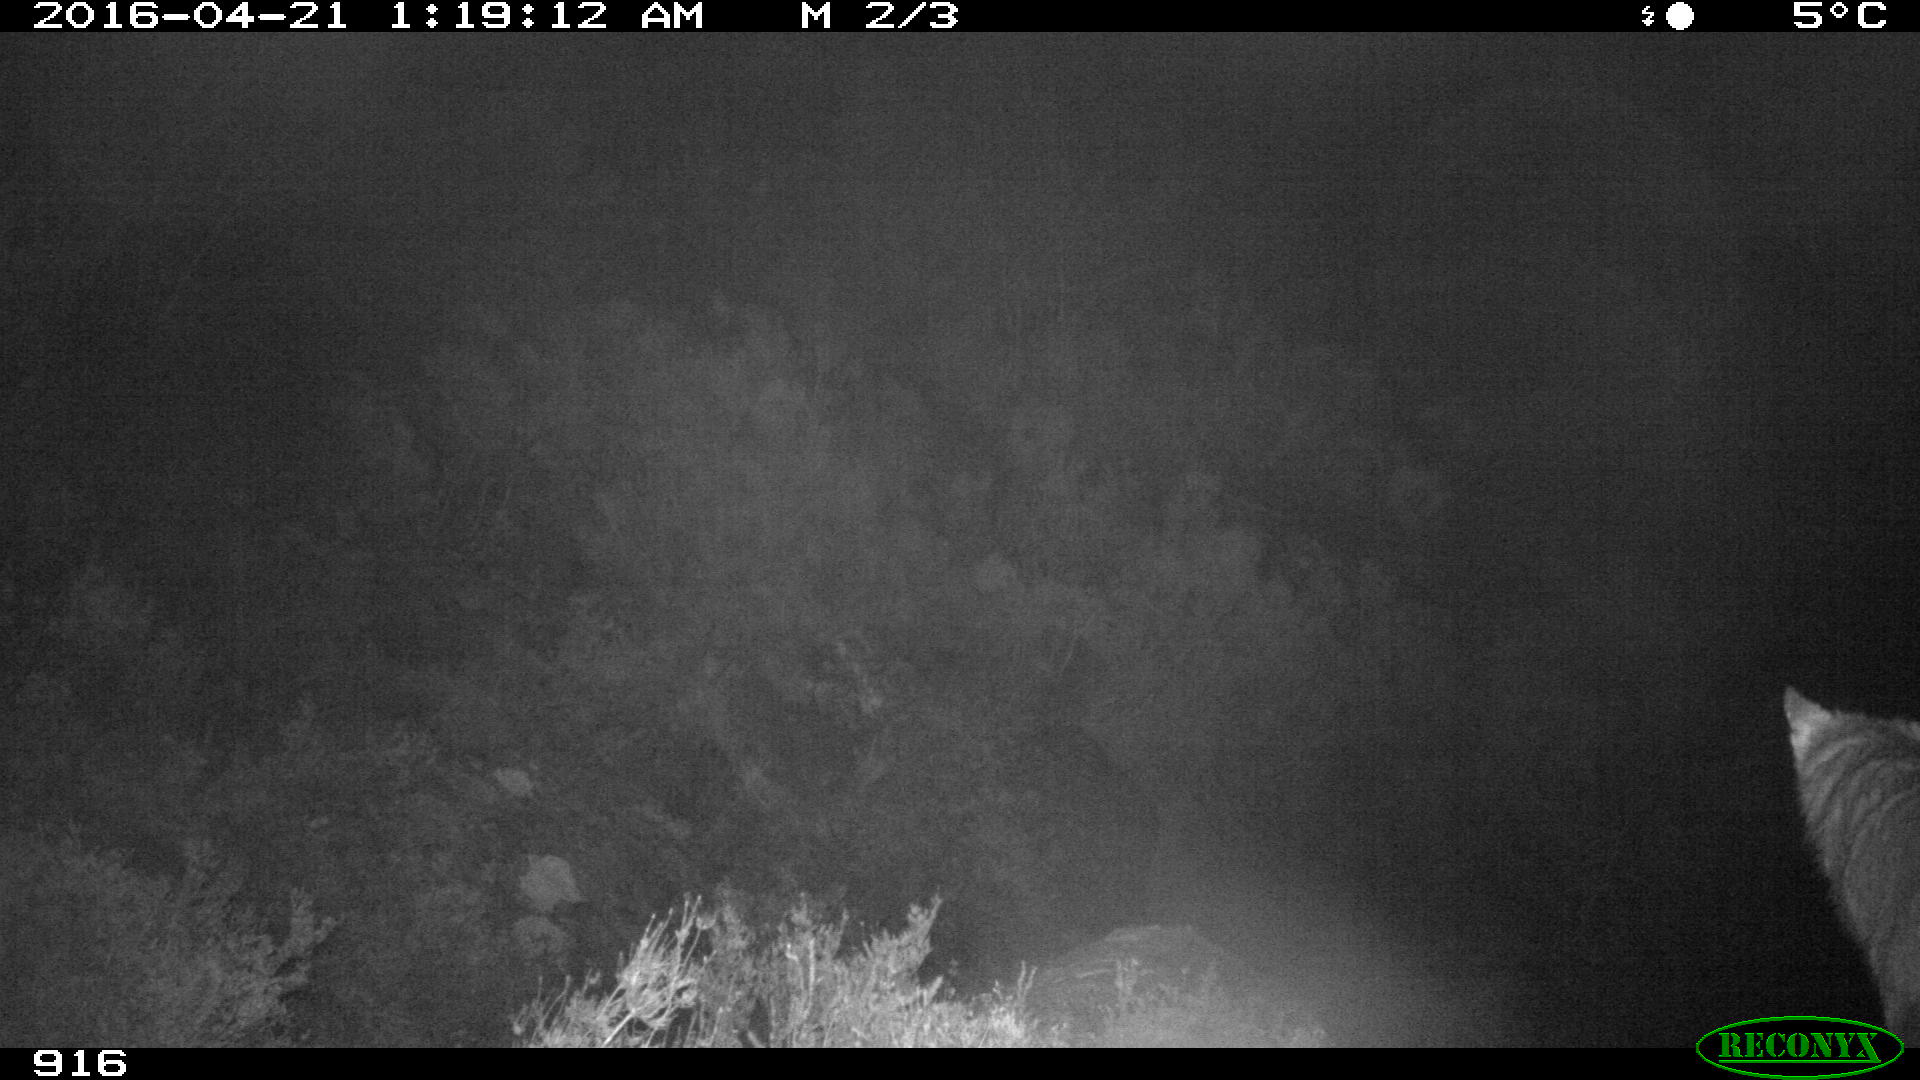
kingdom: Animalia
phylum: Chordata
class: Mammalia
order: Carnivora
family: Canidae
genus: Vulpes
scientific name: Vulpes vulpes
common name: Red fox
